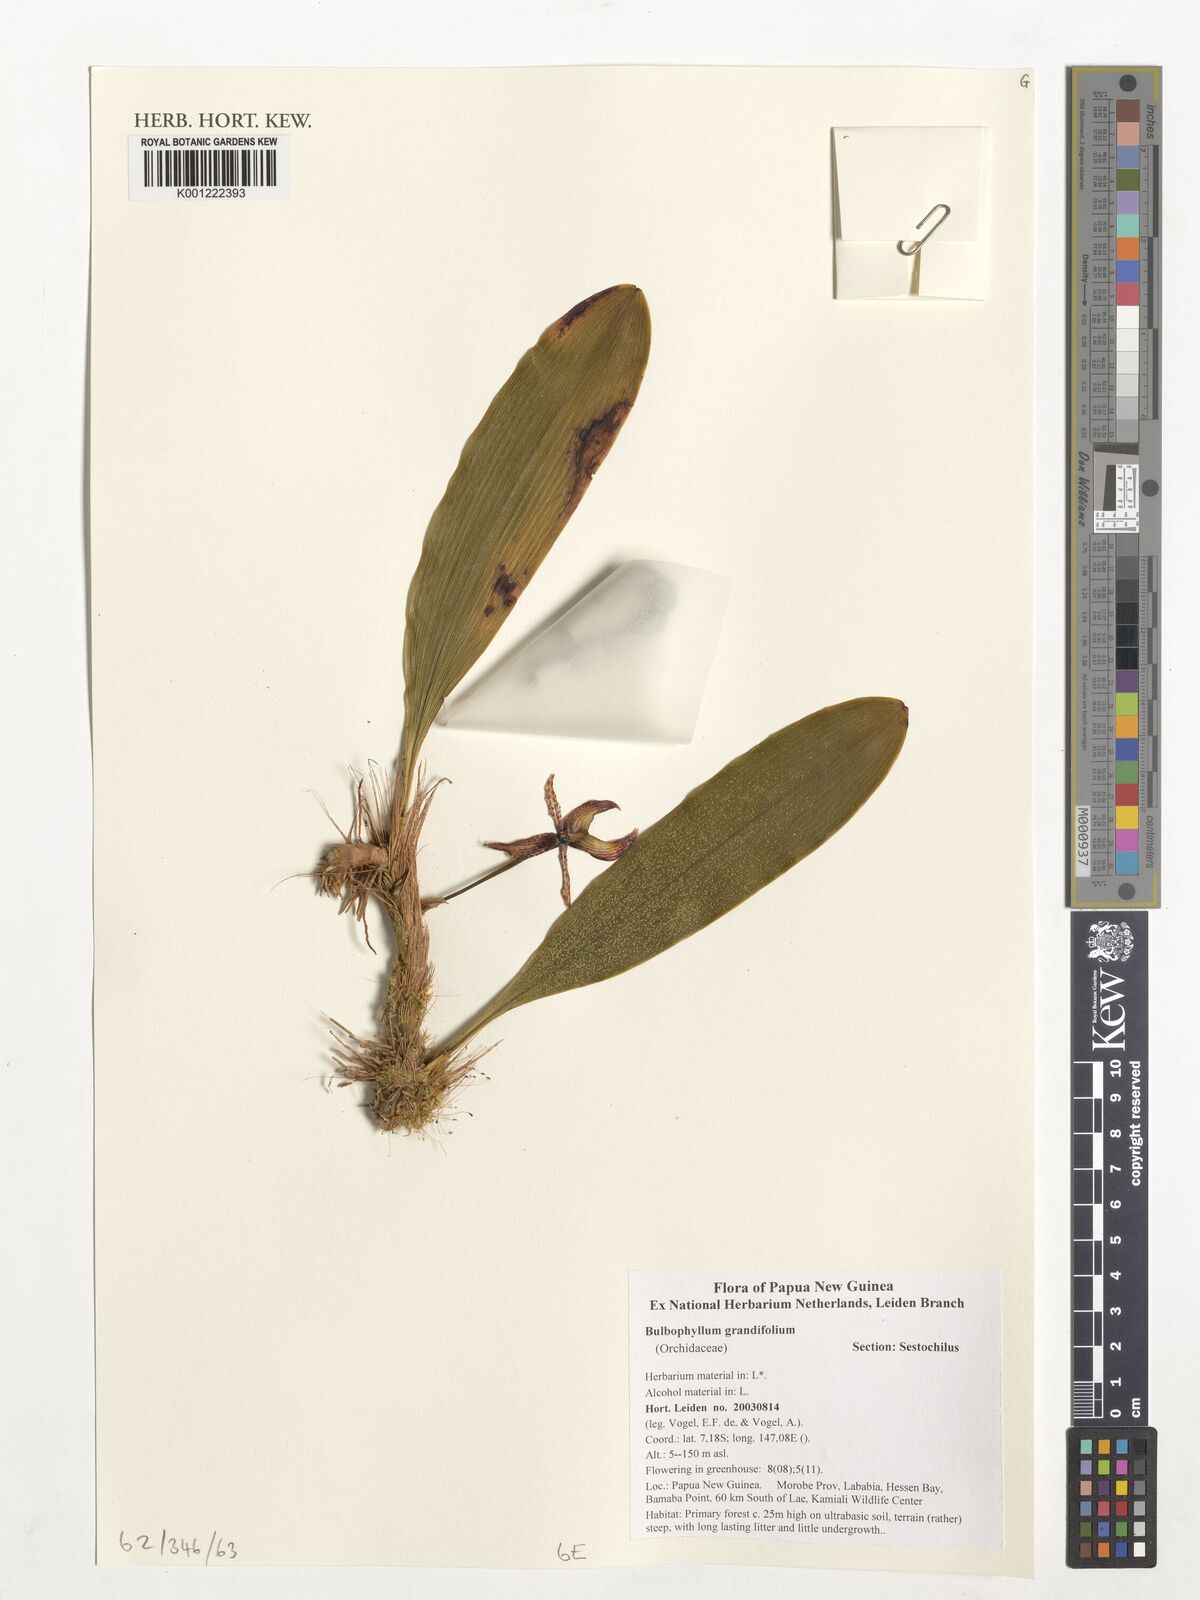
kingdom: Plantae
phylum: Tracheophyta
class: Liliopsida
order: Asparagales
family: Orchidaceae
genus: Bulbophyllum
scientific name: Bulbophyllum
